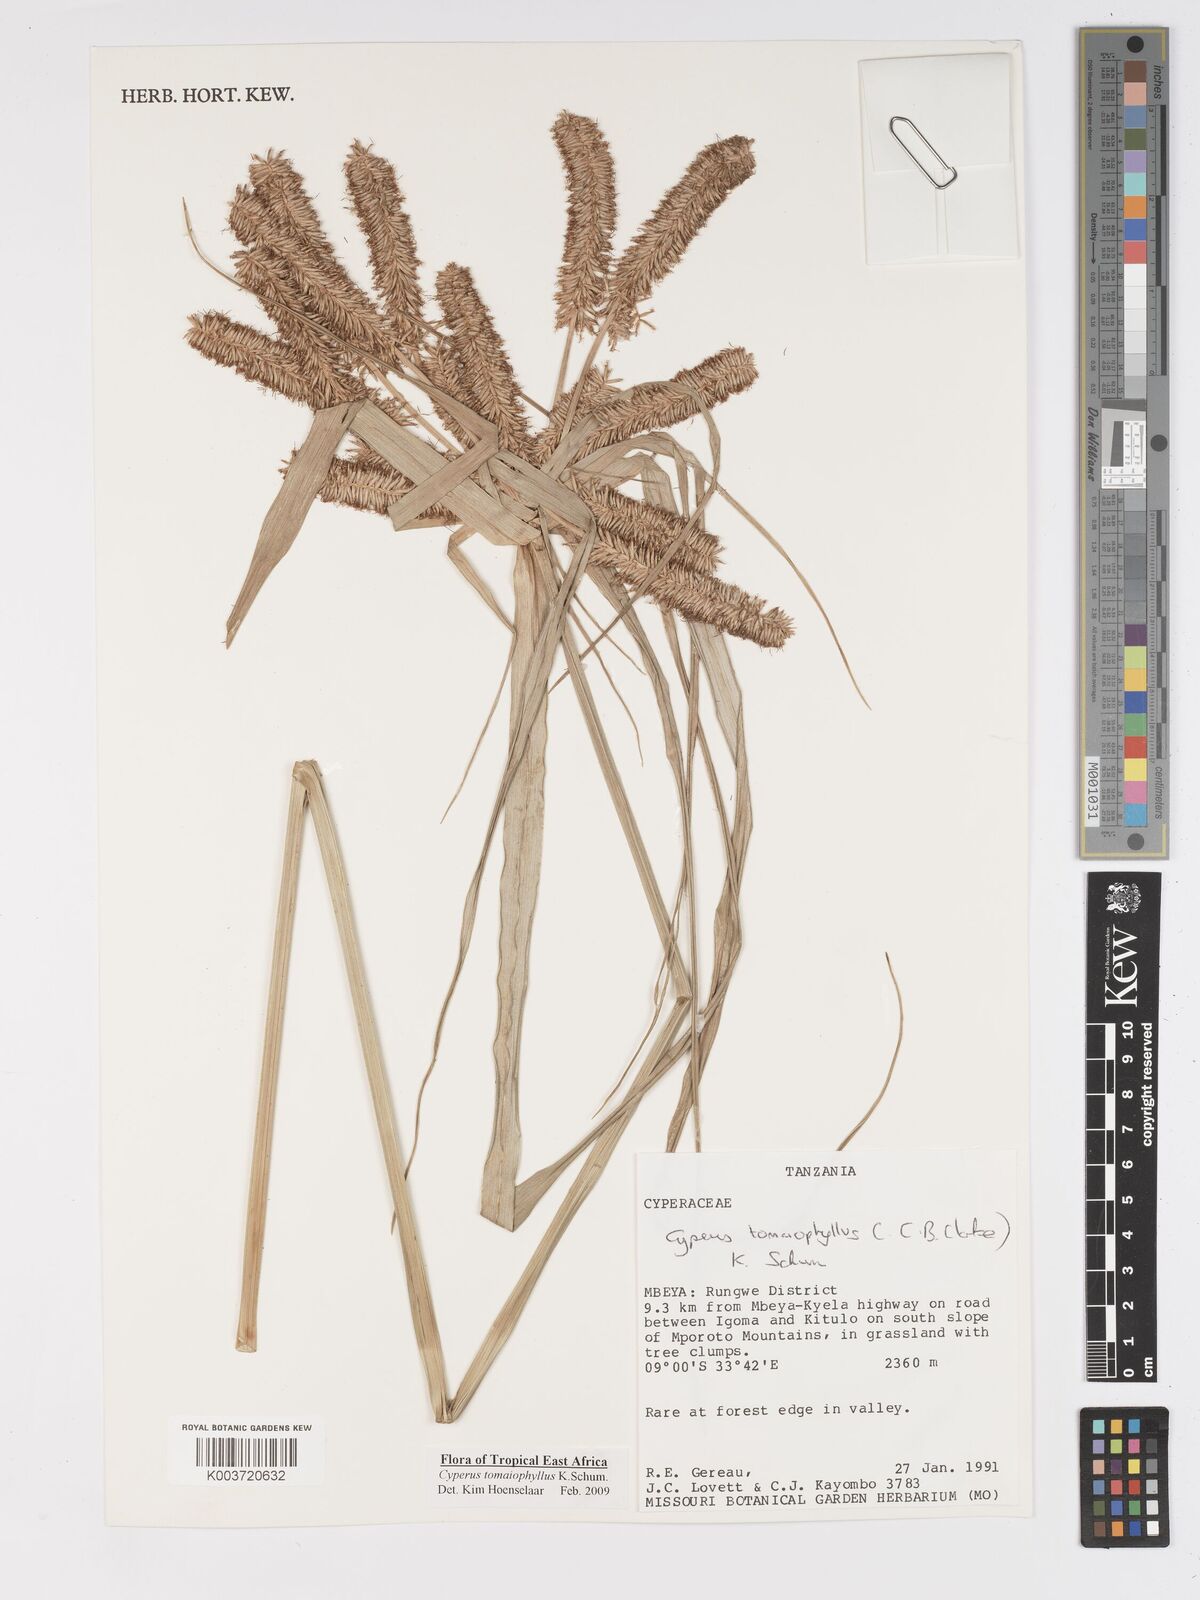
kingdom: Plantae
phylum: Tracheophyta
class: Liliopsida
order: Poales
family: Cyperaceae
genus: Cyperus
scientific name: Cyperus tomaiophyllus
